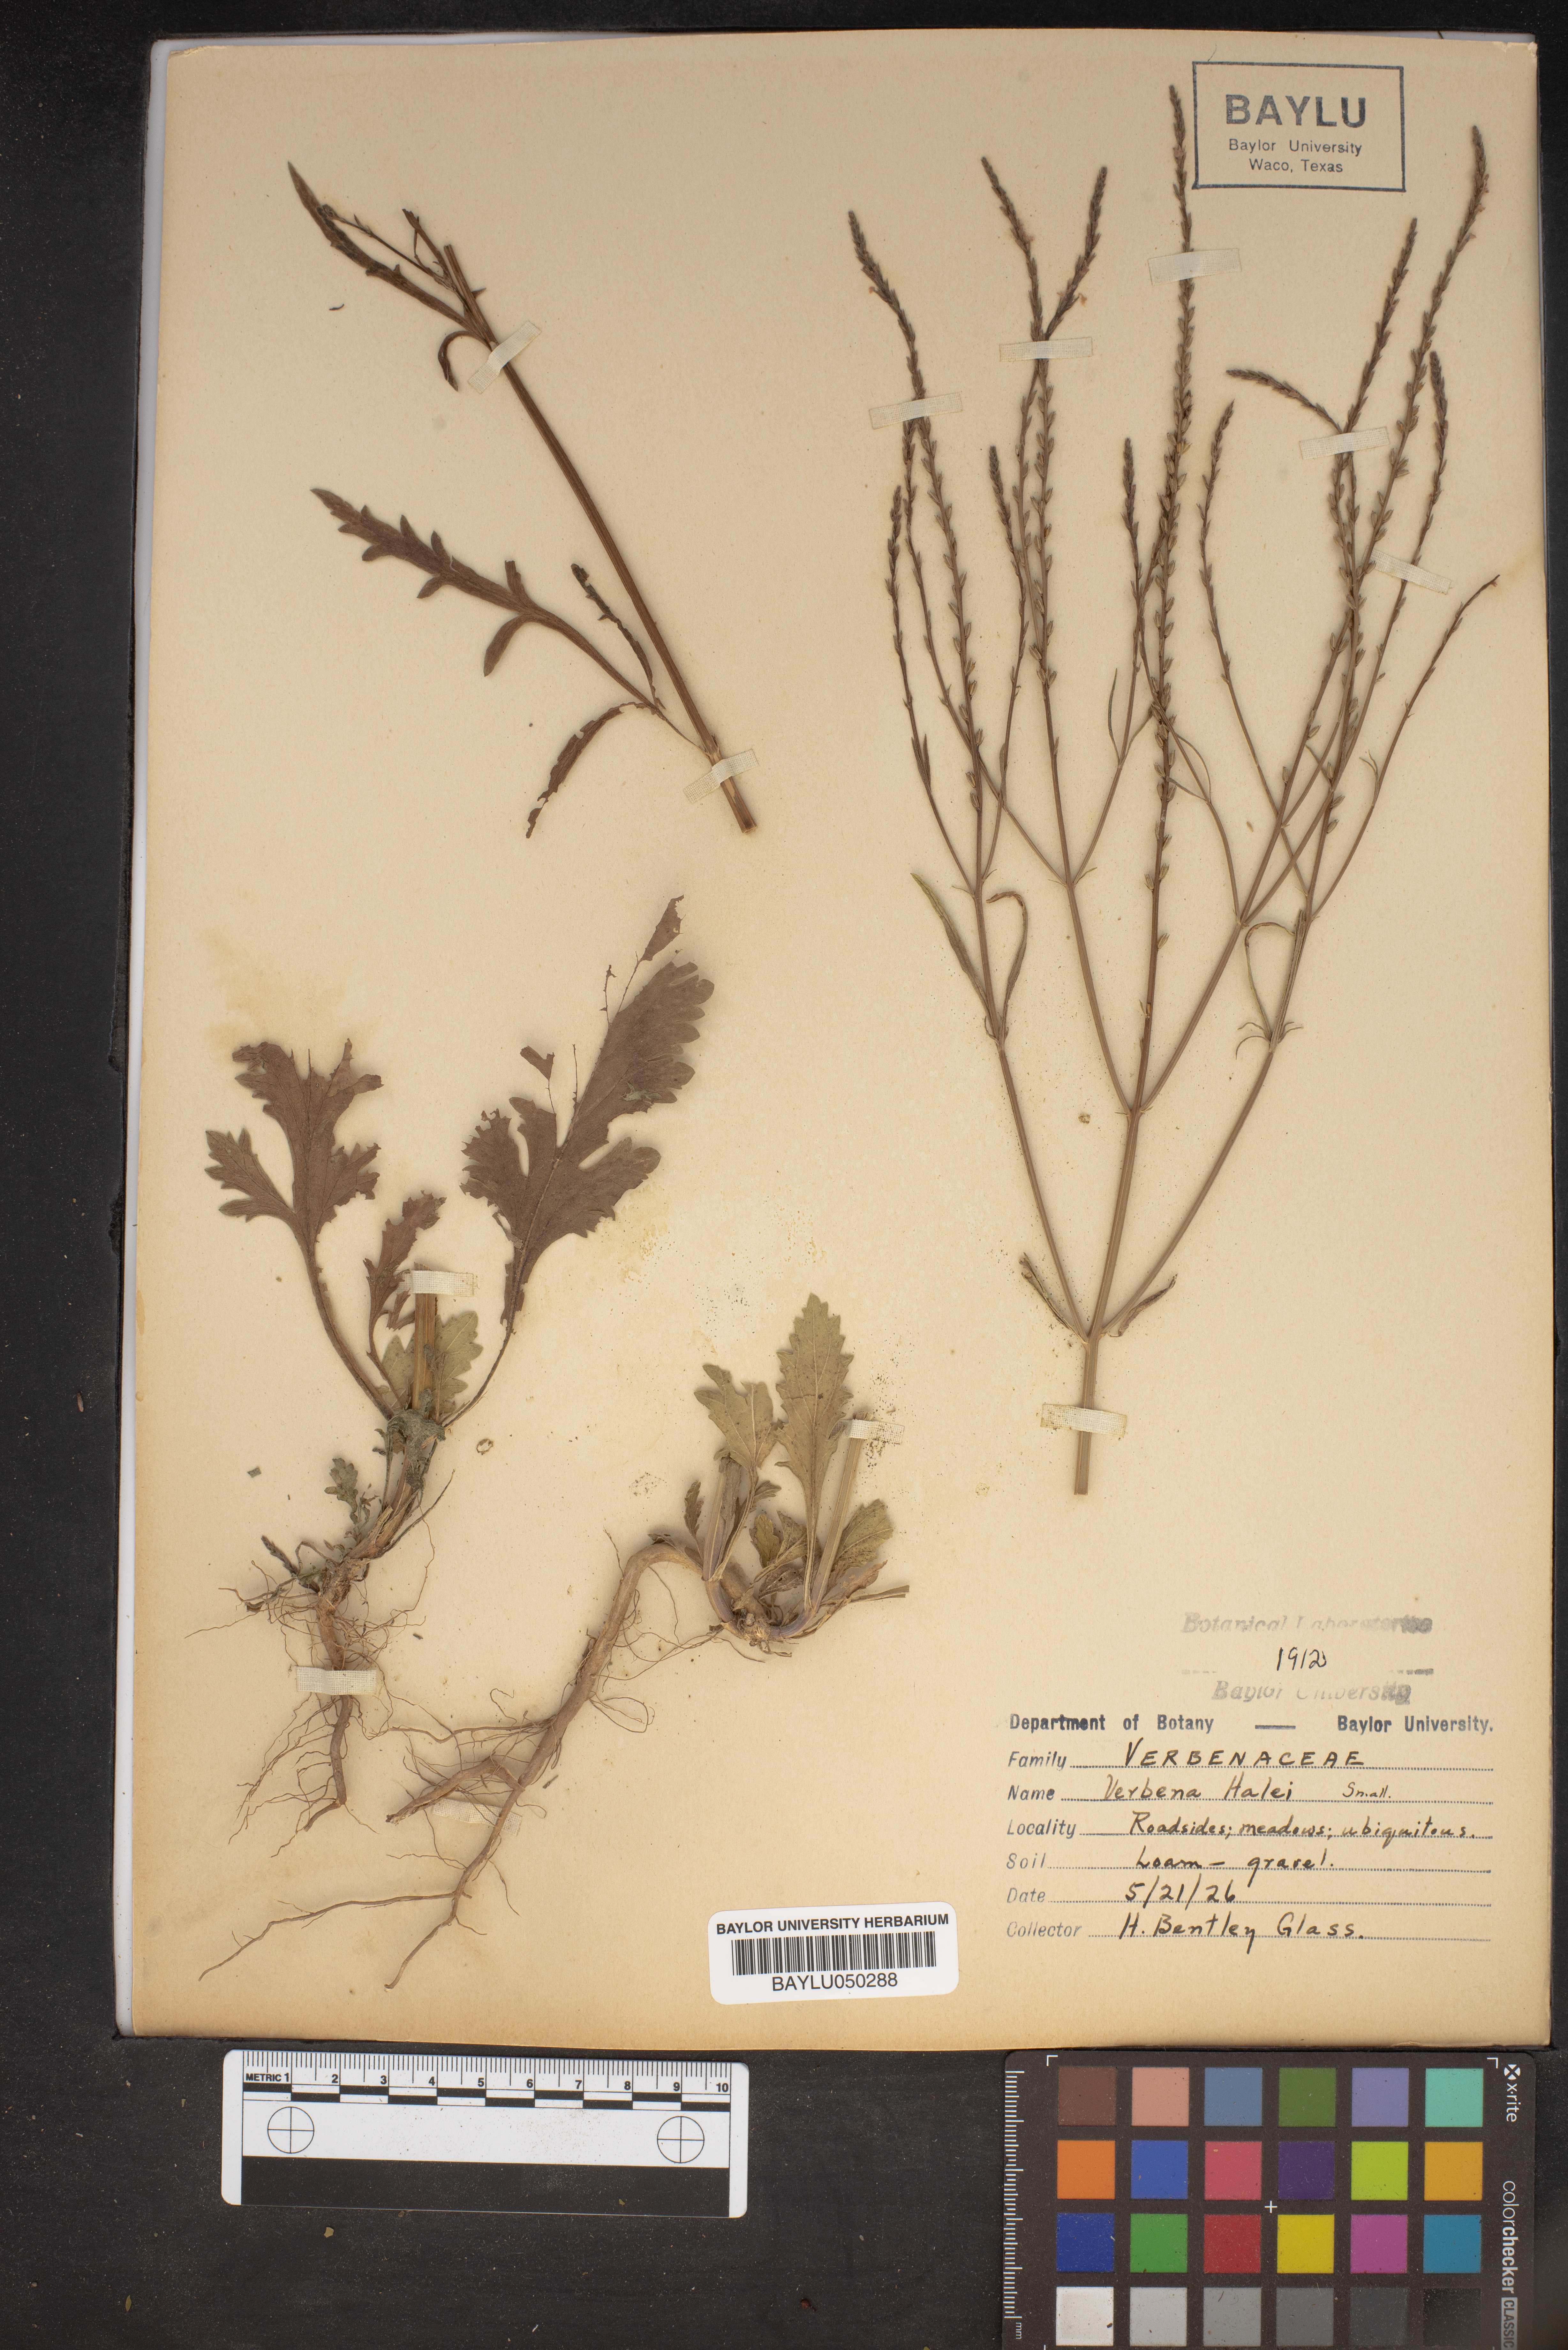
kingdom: Plantae
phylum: Tracheophyta
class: Magnoliopsida
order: Lamiales
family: Verbenaceae
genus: Verbena
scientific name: Verbena halei
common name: Texas vervain
